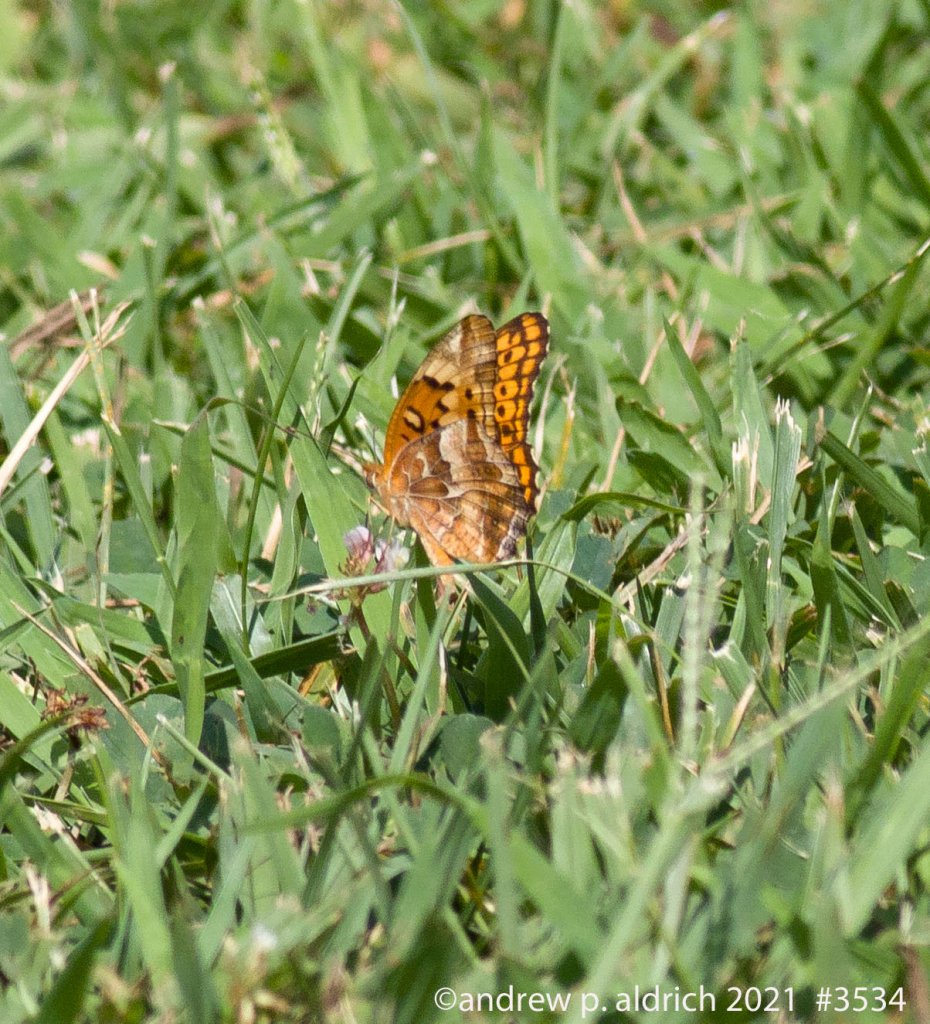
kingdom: Animalia
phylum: Arthropoda
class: Insecta
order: Lepidoptera
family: Nymphalidae
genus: Euptoieta
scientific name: Euptoieta claudia
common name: Variegated Fritillary
